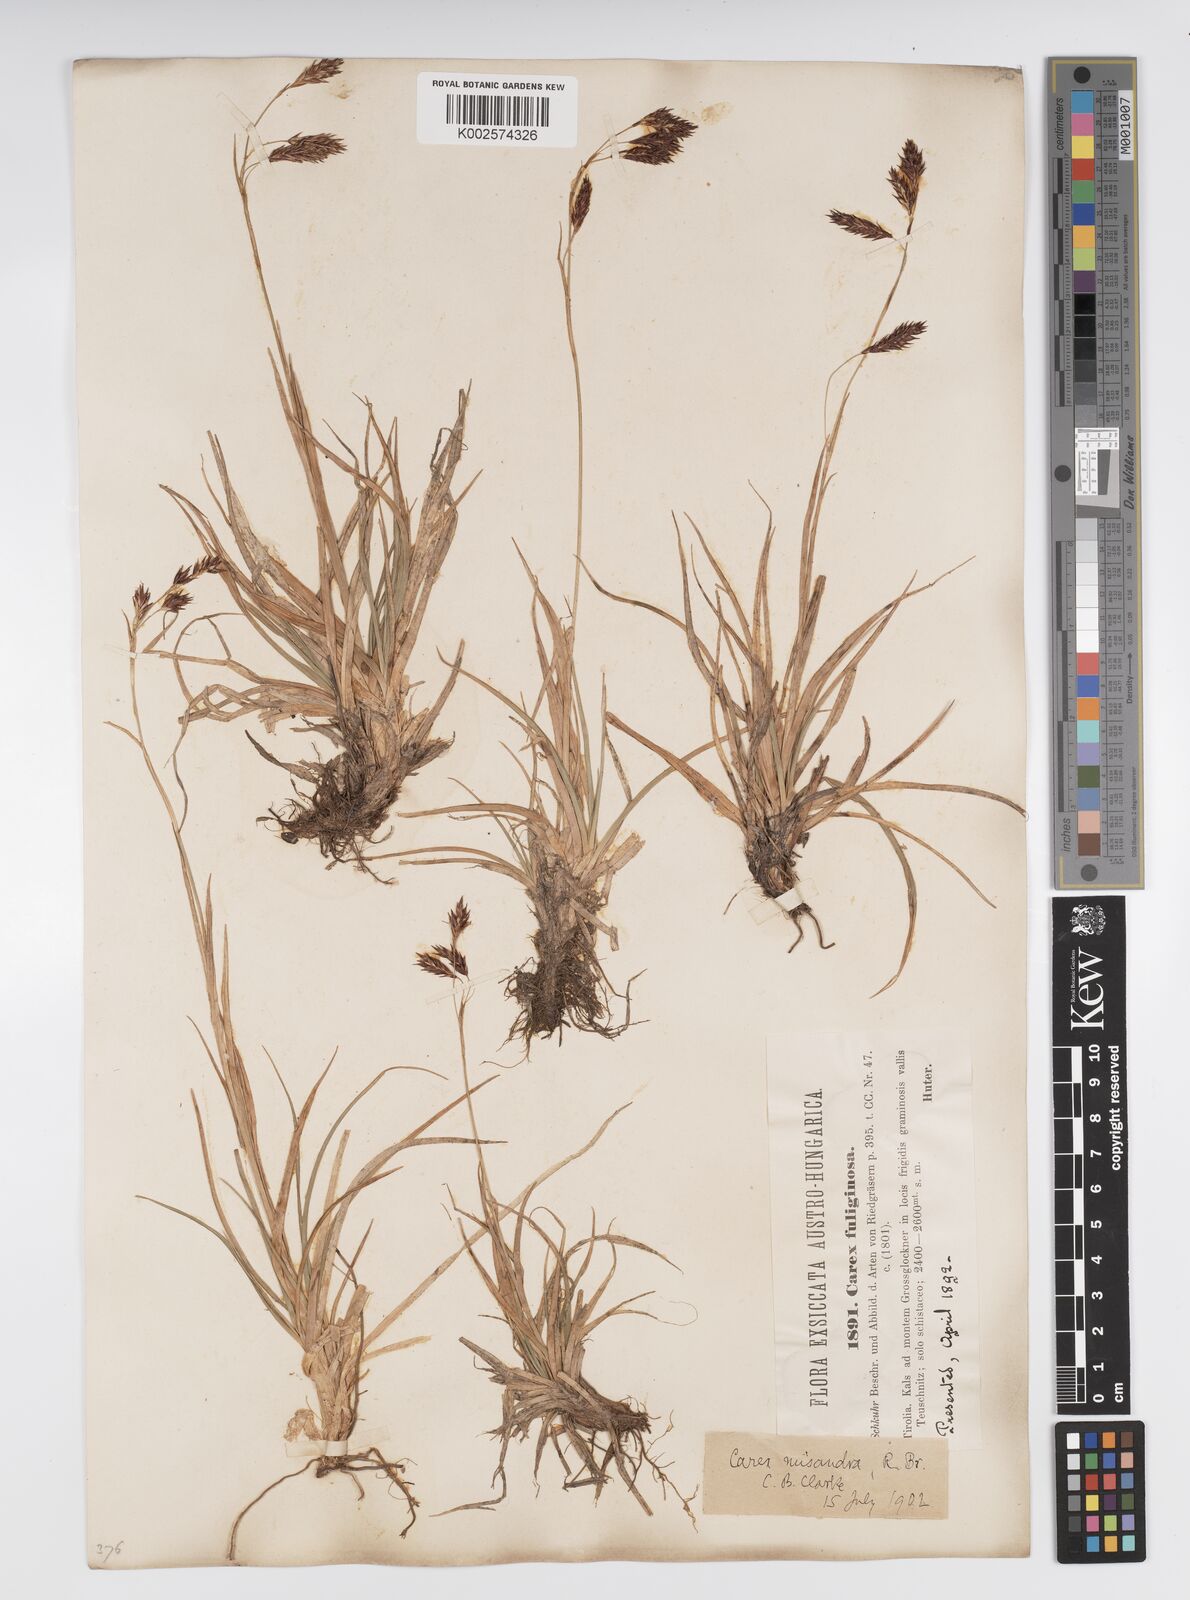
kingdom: Plantae
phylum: Tracheophyta
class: Liliopsida
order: Poales
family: Cyperaceae
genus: Carex
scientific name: Carex fuliginosa
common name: Few-flowered sedge
